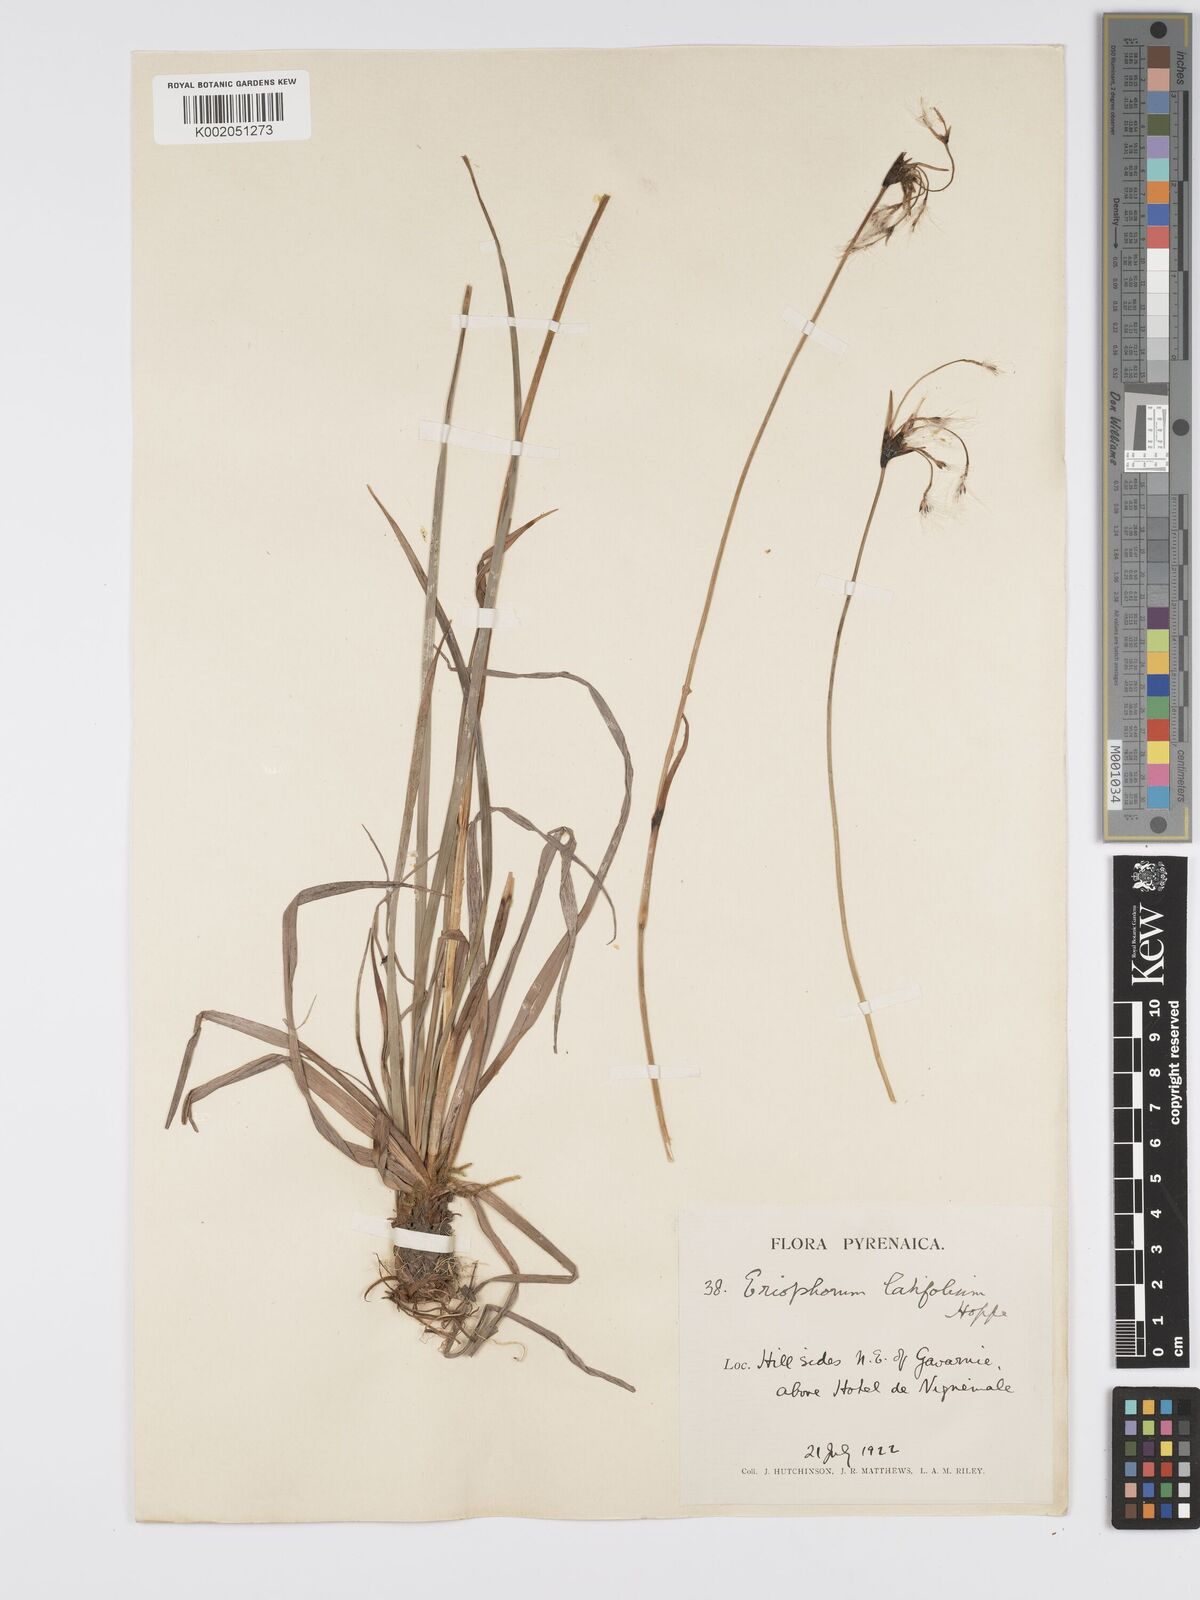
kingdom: Plantae
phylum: Tracheophyta
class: Liliopsida
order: Poales
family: Cyperaceae
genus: Eriophorum
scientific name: Eriophorum latifolium
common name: Broad-leaved cottongrass
